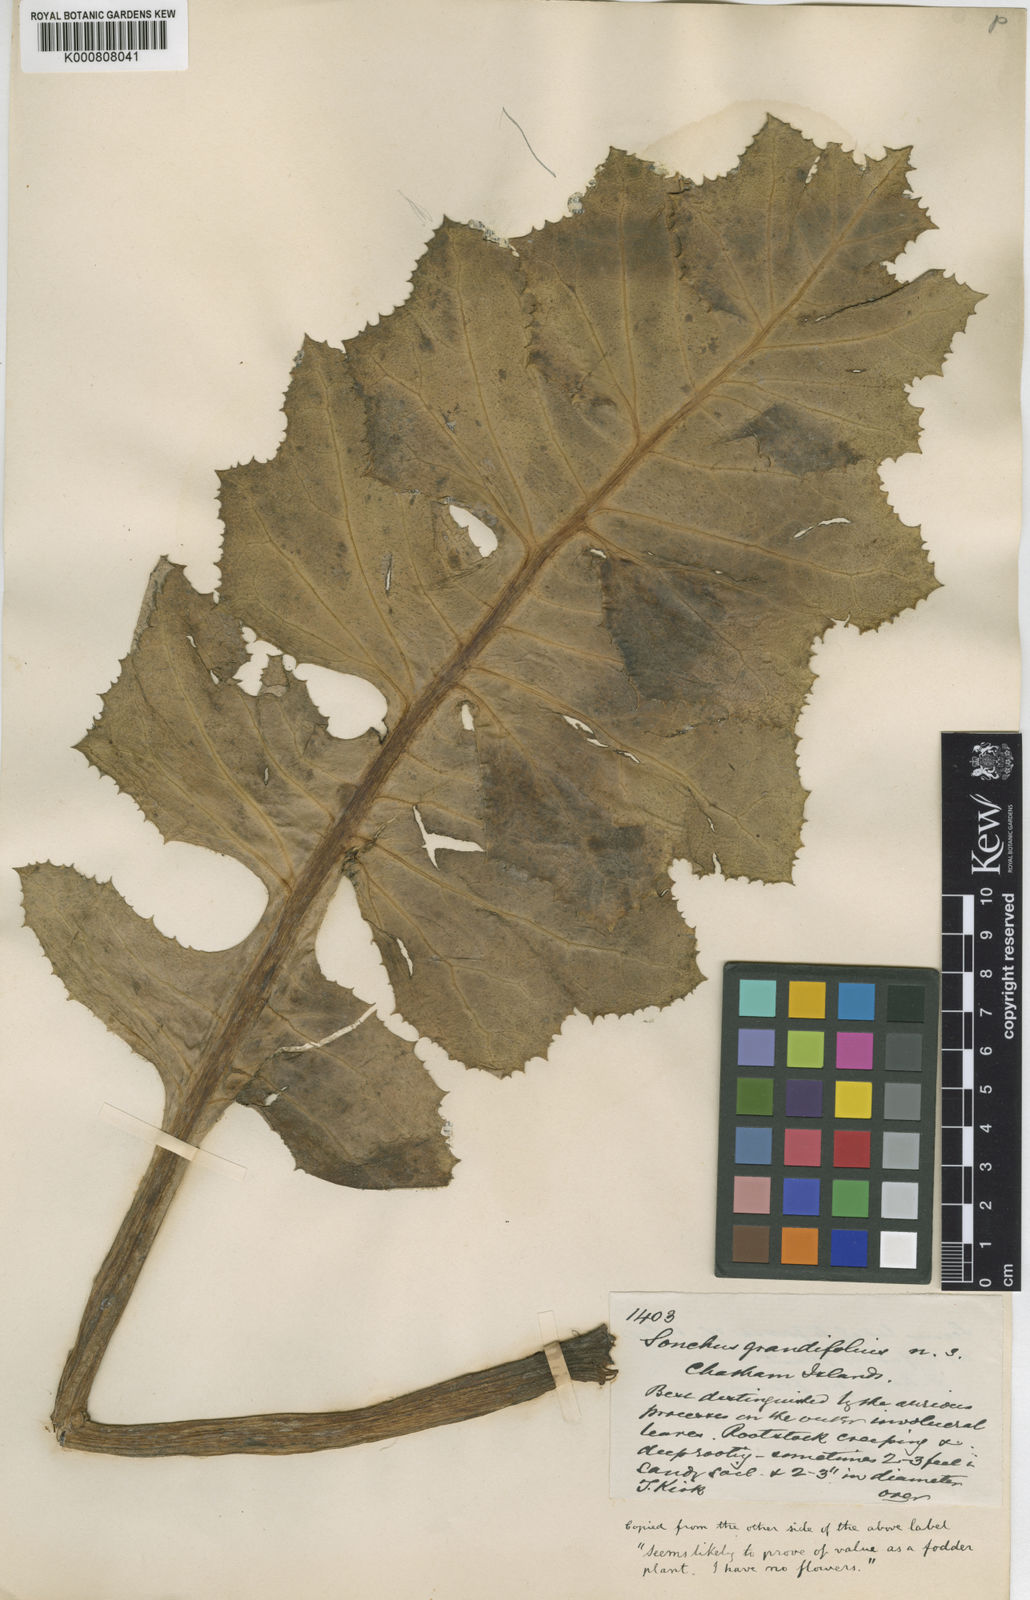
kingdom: Plantae
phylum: Tracheophyta
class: Magnoliopsida
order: Asterales
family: Asteraceae
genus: Sonchus
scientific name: Sonchus grandifolius
